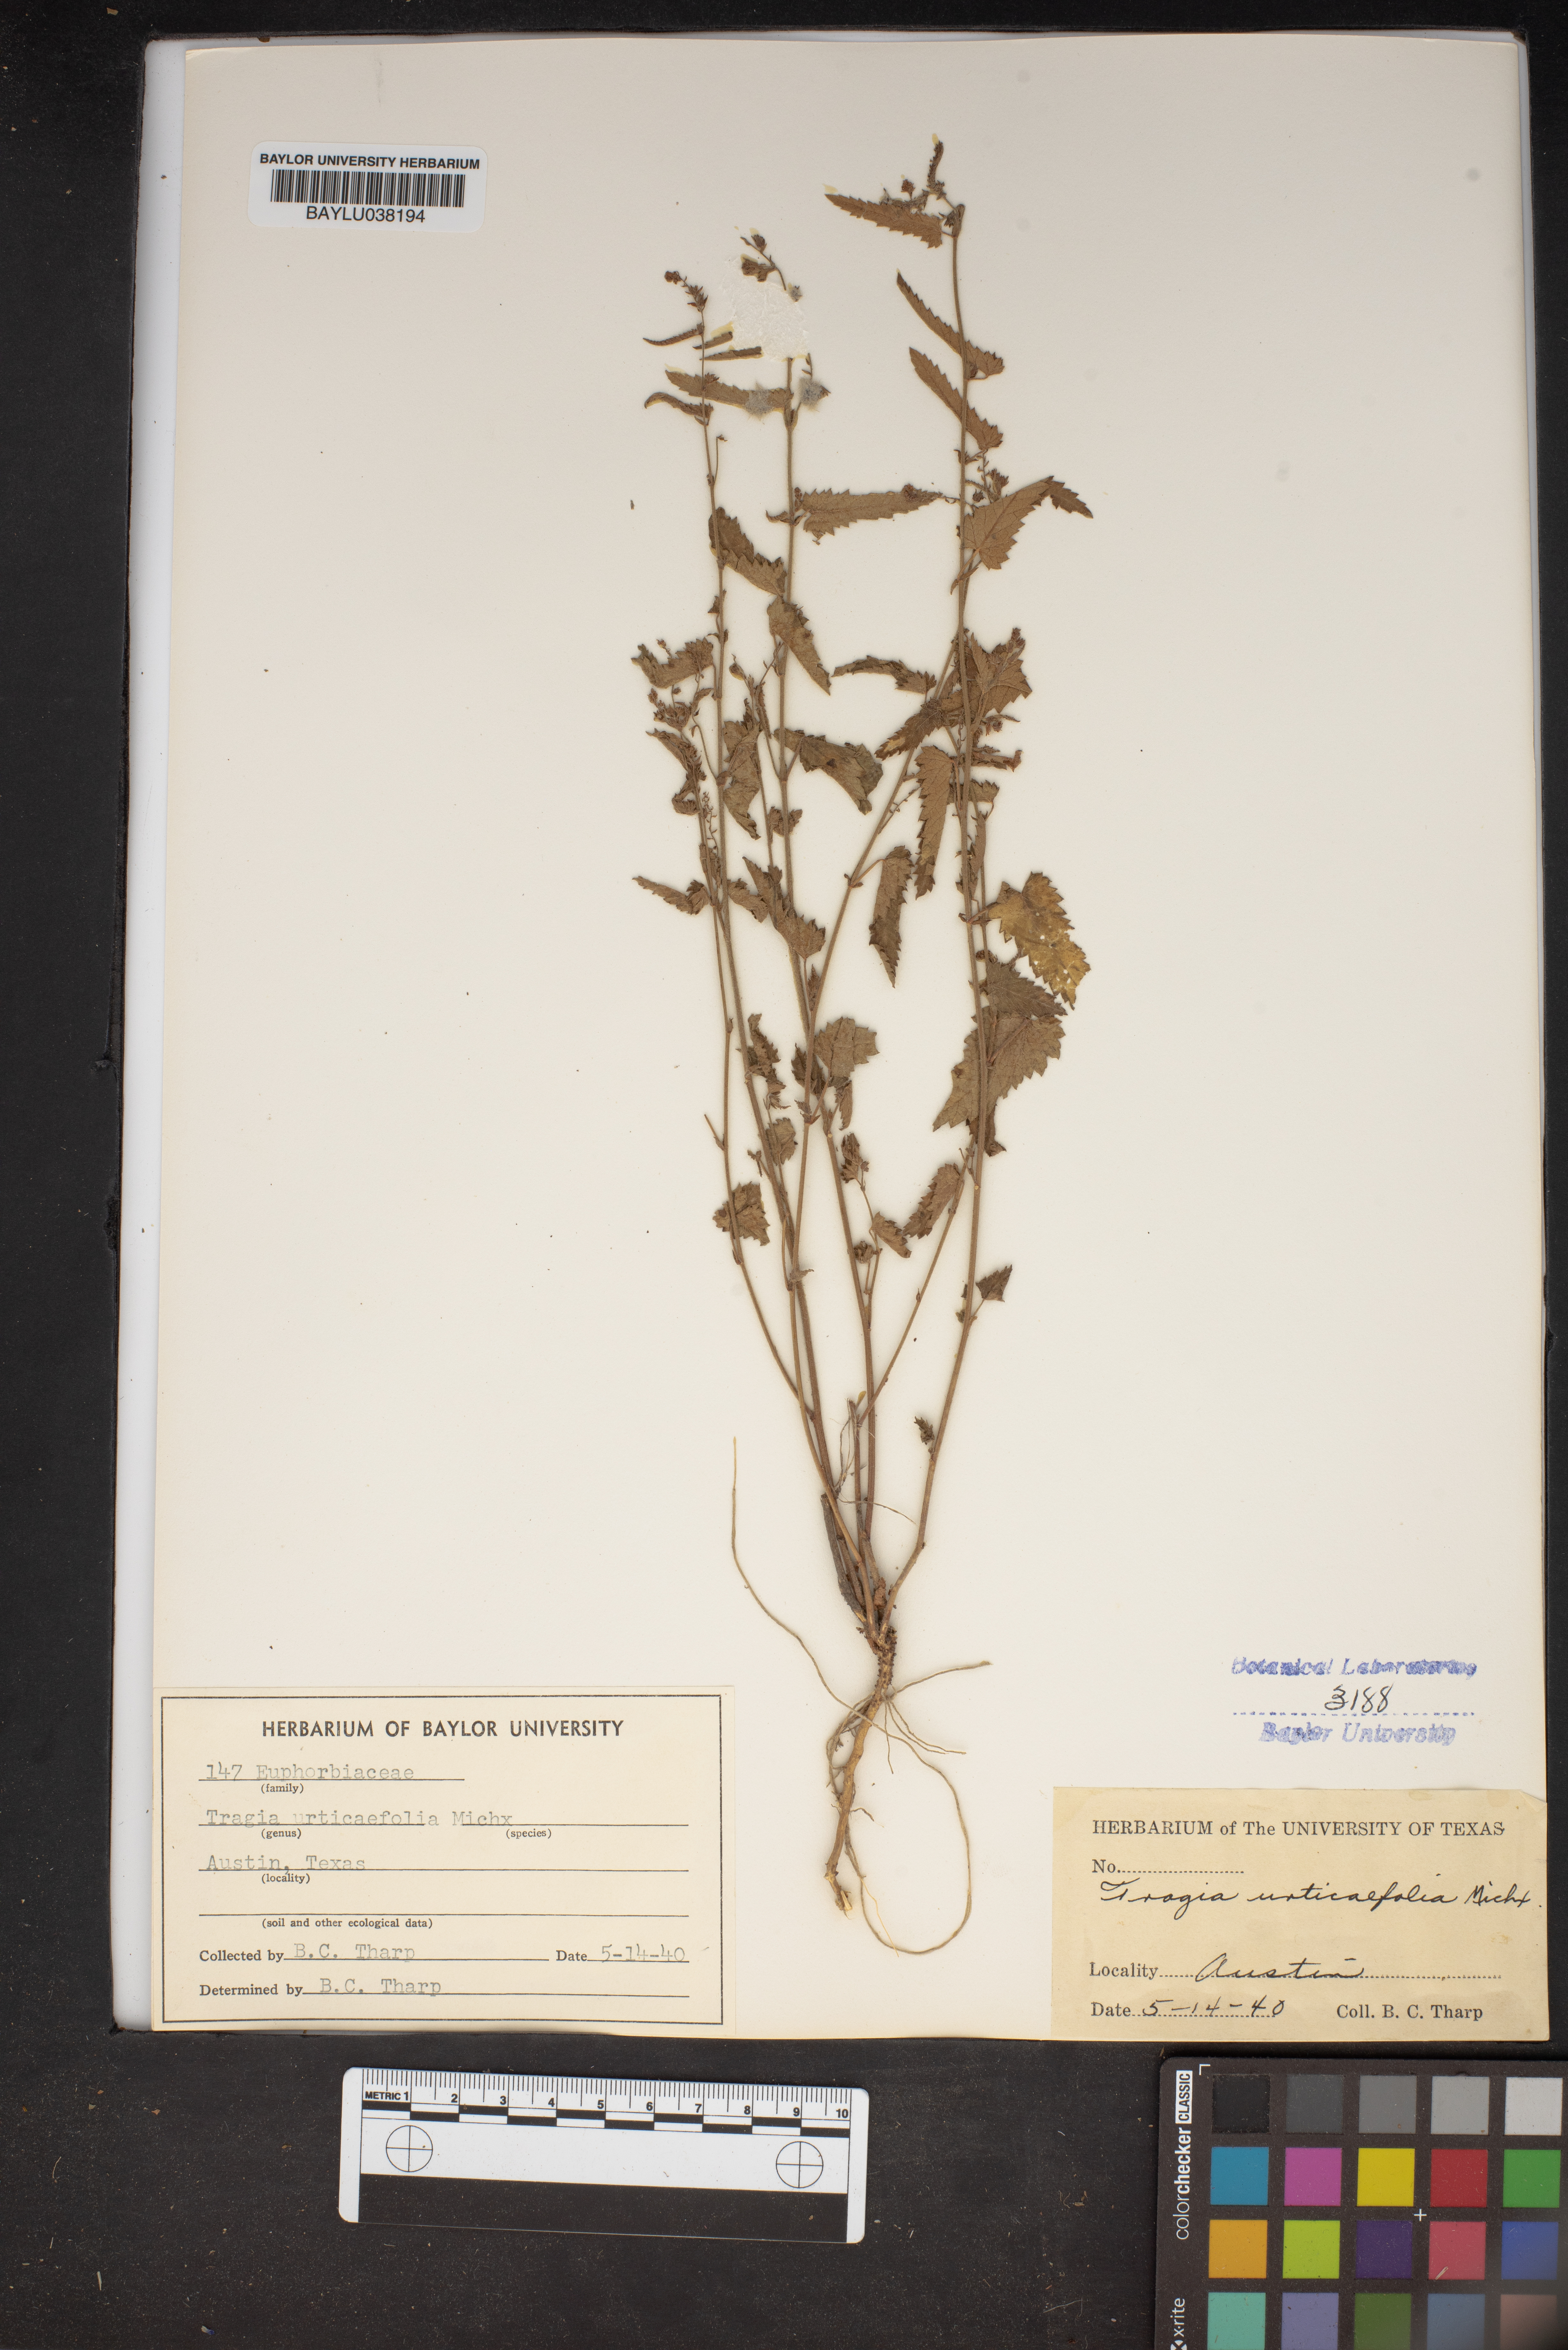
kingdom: Plantae
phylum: Tracheophyta
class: Magnoliopsida
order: Malpighiales
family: Euphorbiaceae
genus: Tragia
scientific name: Tragia urticifolia
